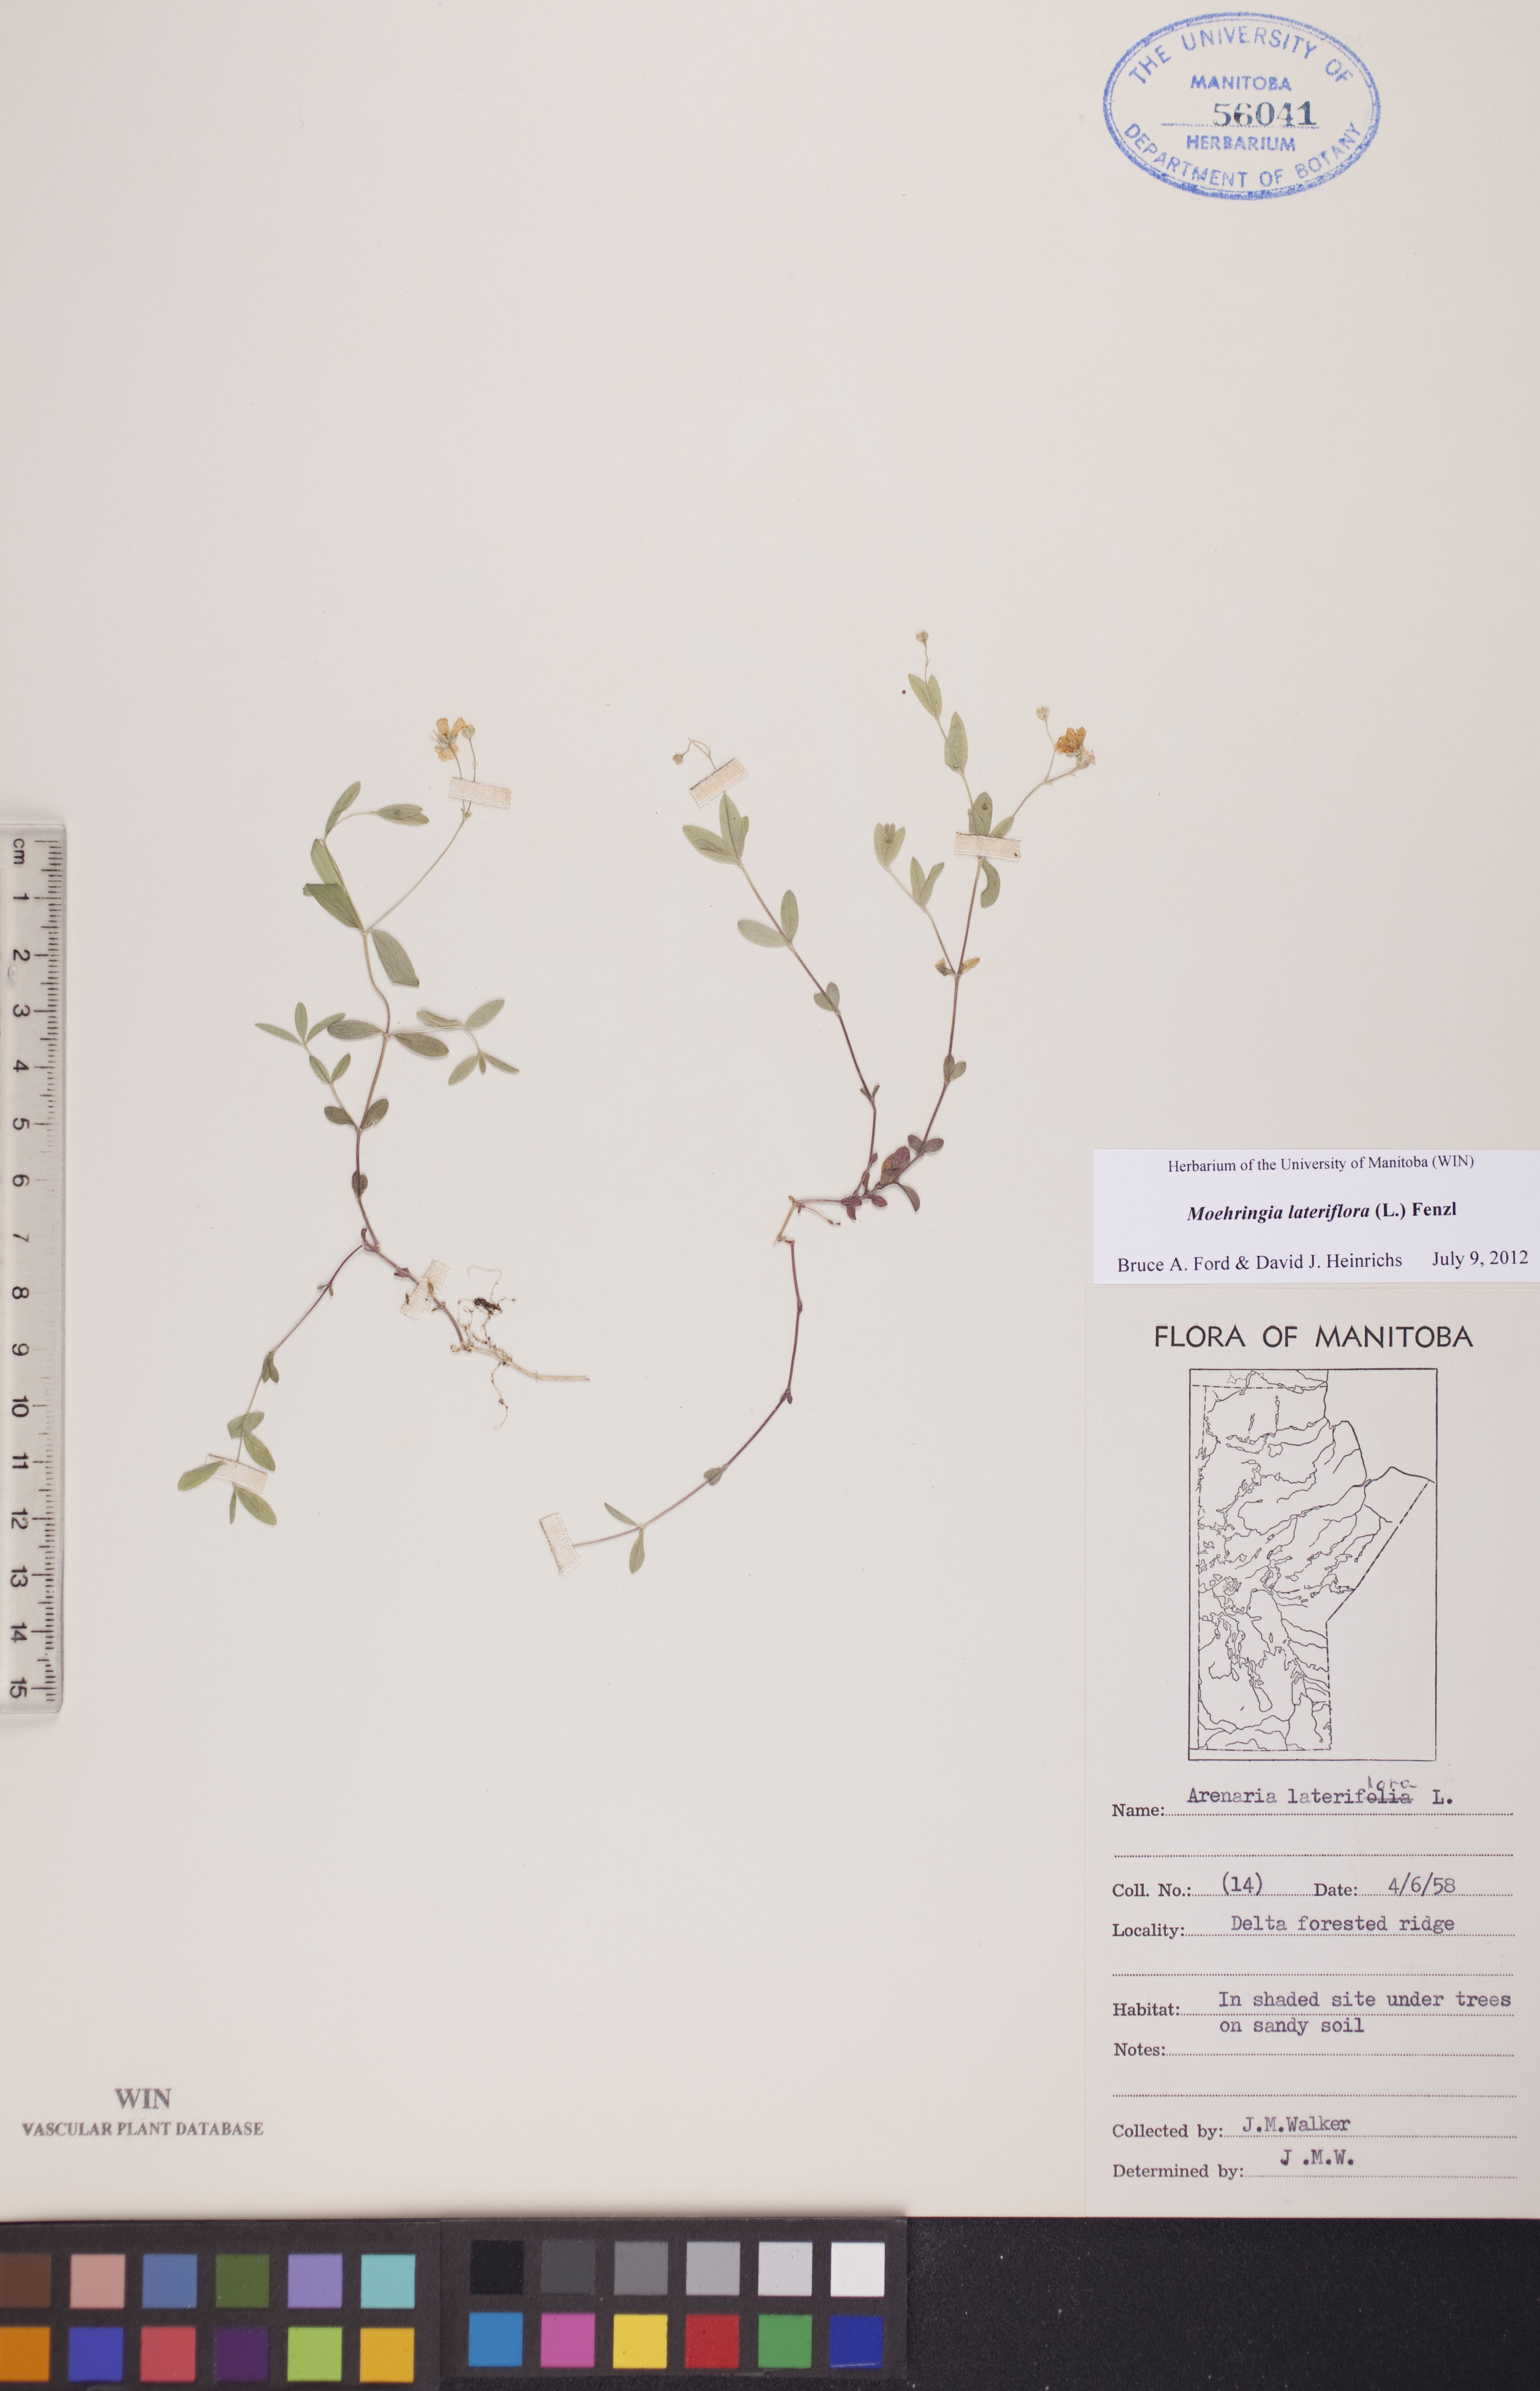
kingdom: Plantae
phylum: Tracheophyta
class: Magnoliopsida
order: Caryophyllales
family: Caryophyllaceae
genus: Moehringia
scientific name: Moehringia lateriflora
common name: Blunt-leaved sandwort
